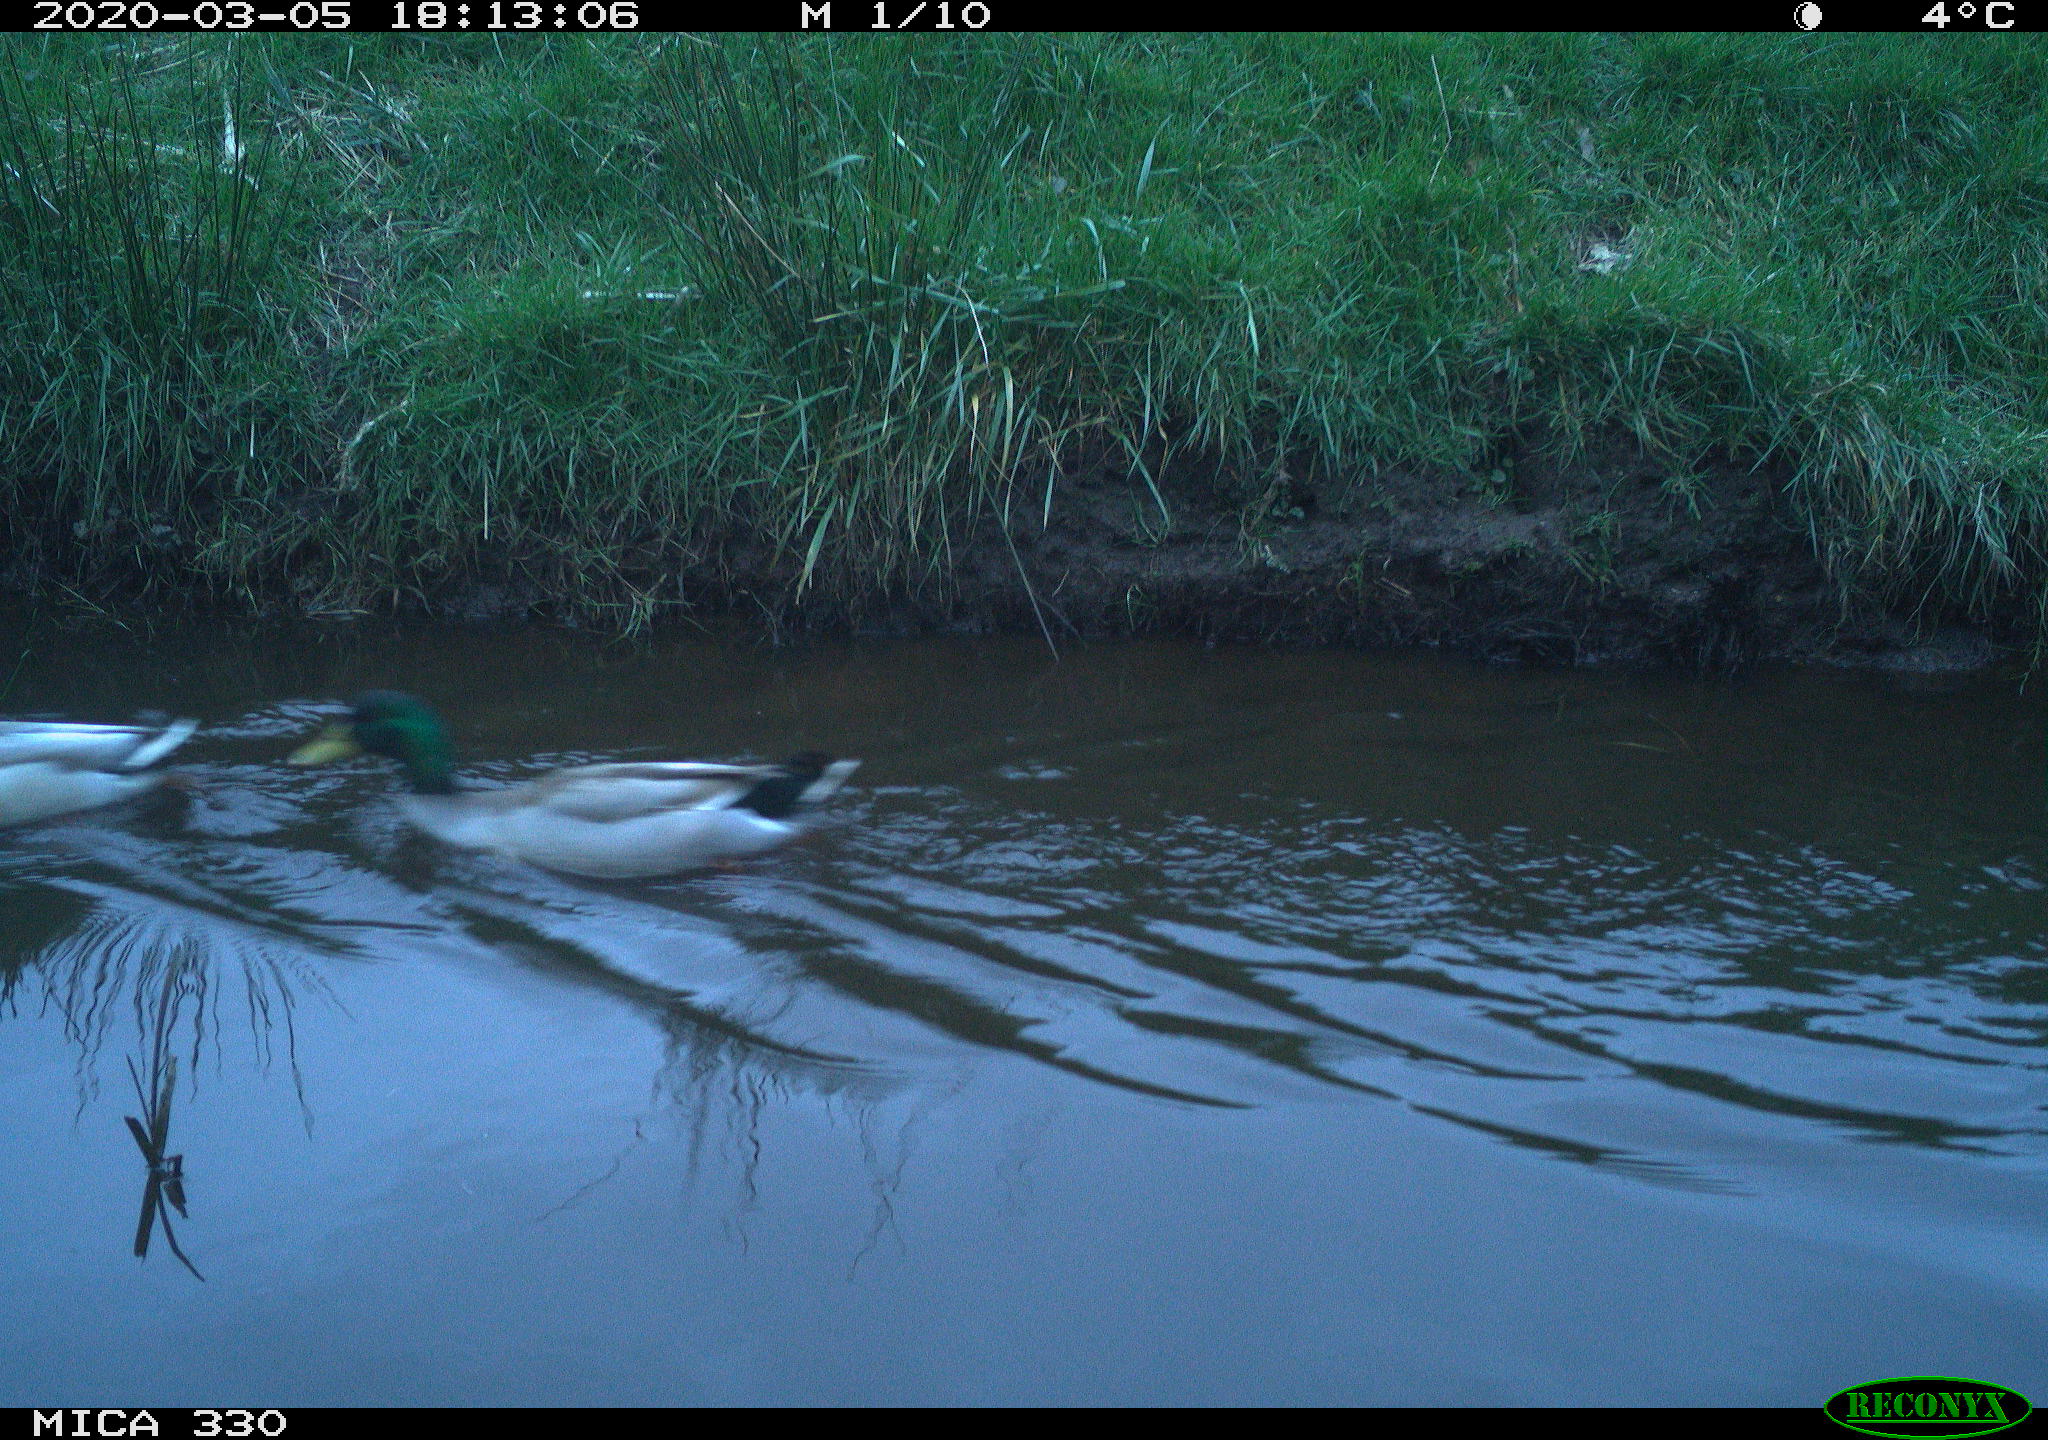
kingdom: Animalia
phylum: Chordata
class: Aves
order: Anseriformes
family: Anatidae
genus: Anas
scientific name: Anas platyrhynchos
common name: Mallard
